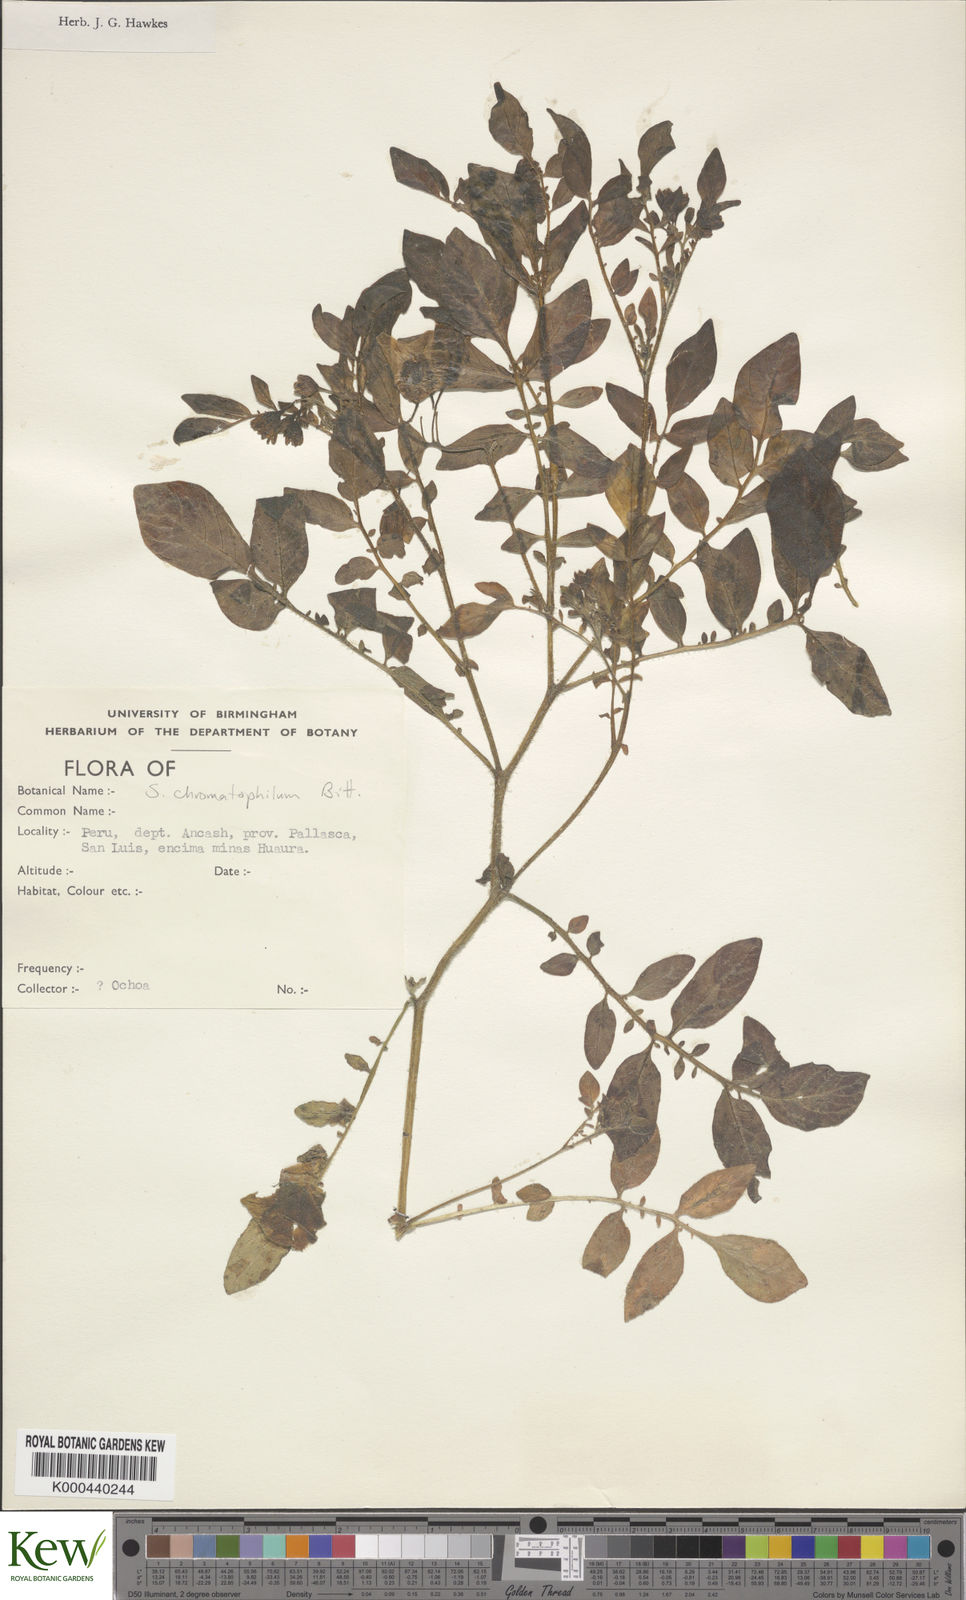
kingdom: Plantae
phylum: Tracheophyta
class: Magnoliopsida
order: Solanales
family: Solanaceae
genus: Solanum
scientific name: Solanum chomatophilum
